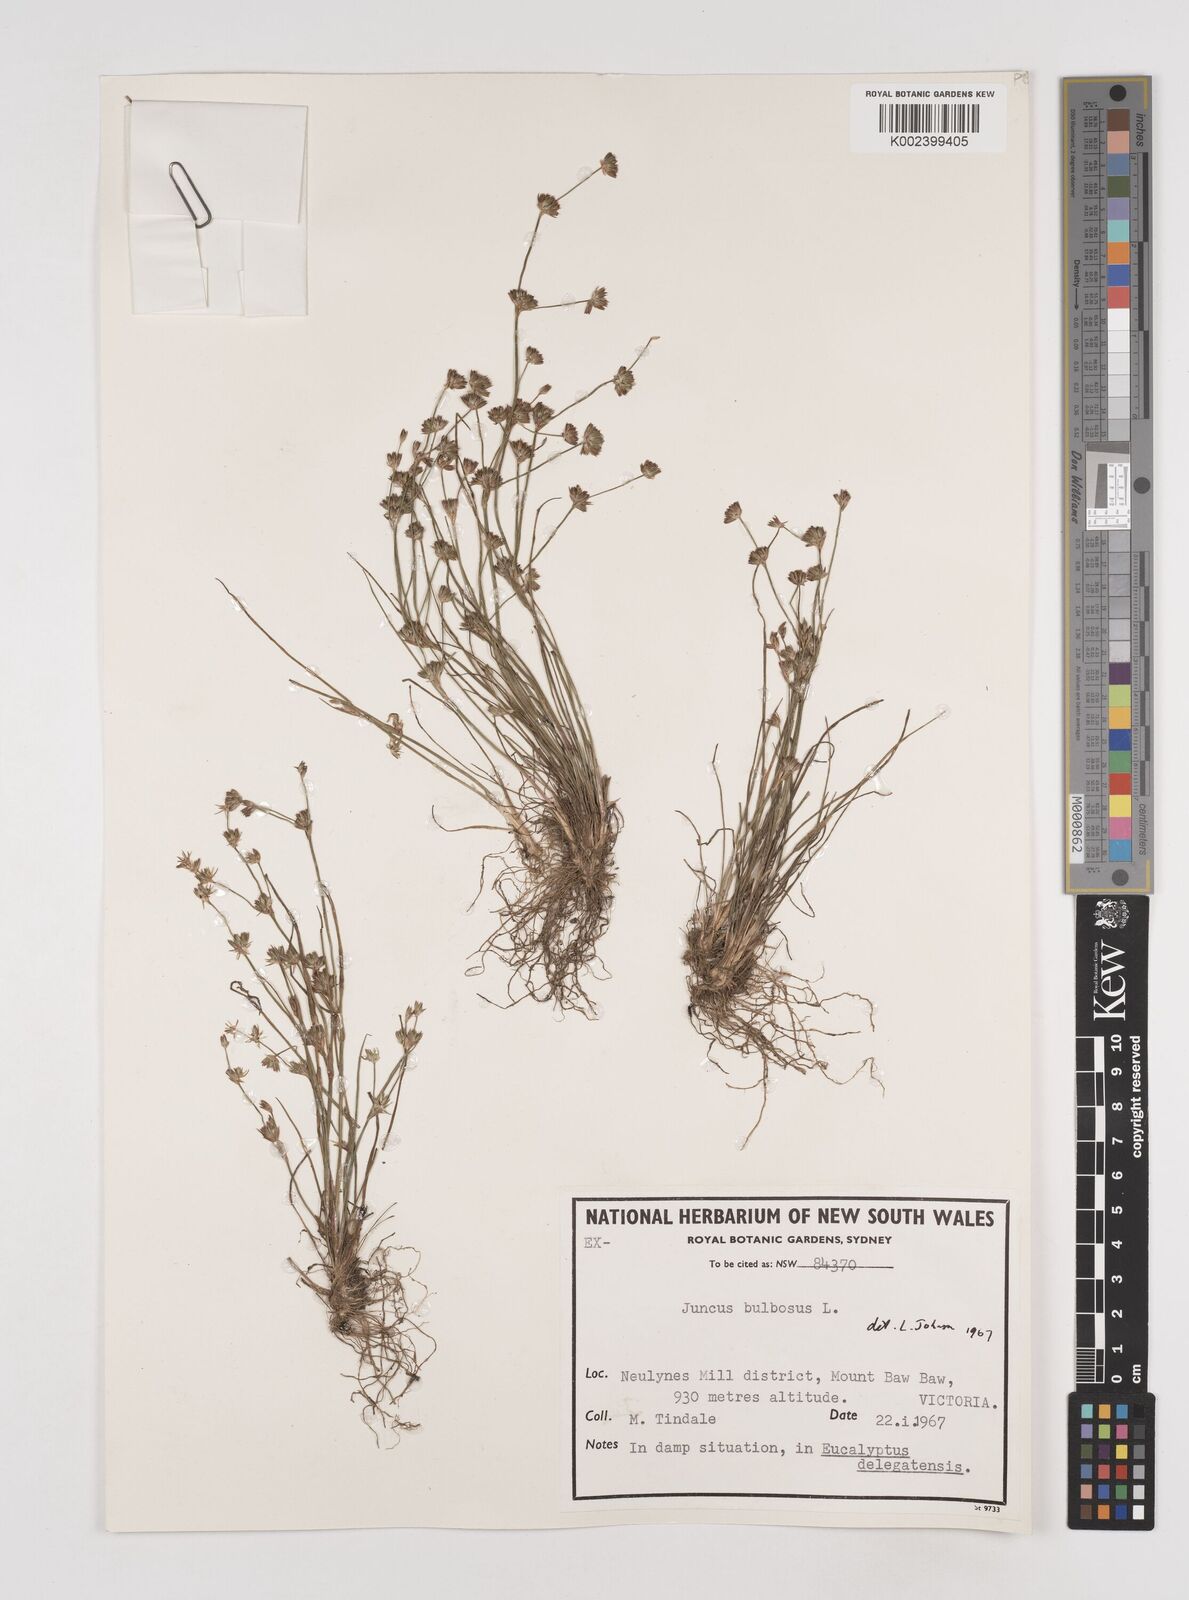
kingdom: Plantae
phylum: Tracheophyta
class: Liliopsida
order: Poales
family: Juncaceae
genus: Juncus
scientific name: Juncus bulbosus
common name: Bulbous rush
